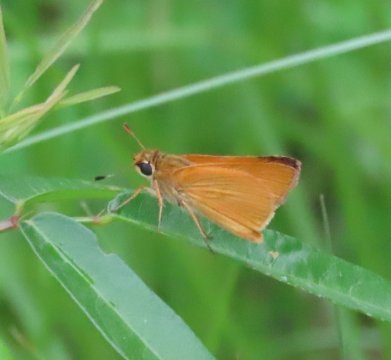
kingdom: Animalia
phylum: Arthropoda
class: Insecta
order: Lepidoptera
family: Hesperiidae
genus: Atrytone
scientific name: Atrytone delaware
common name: Delaware Skipper
